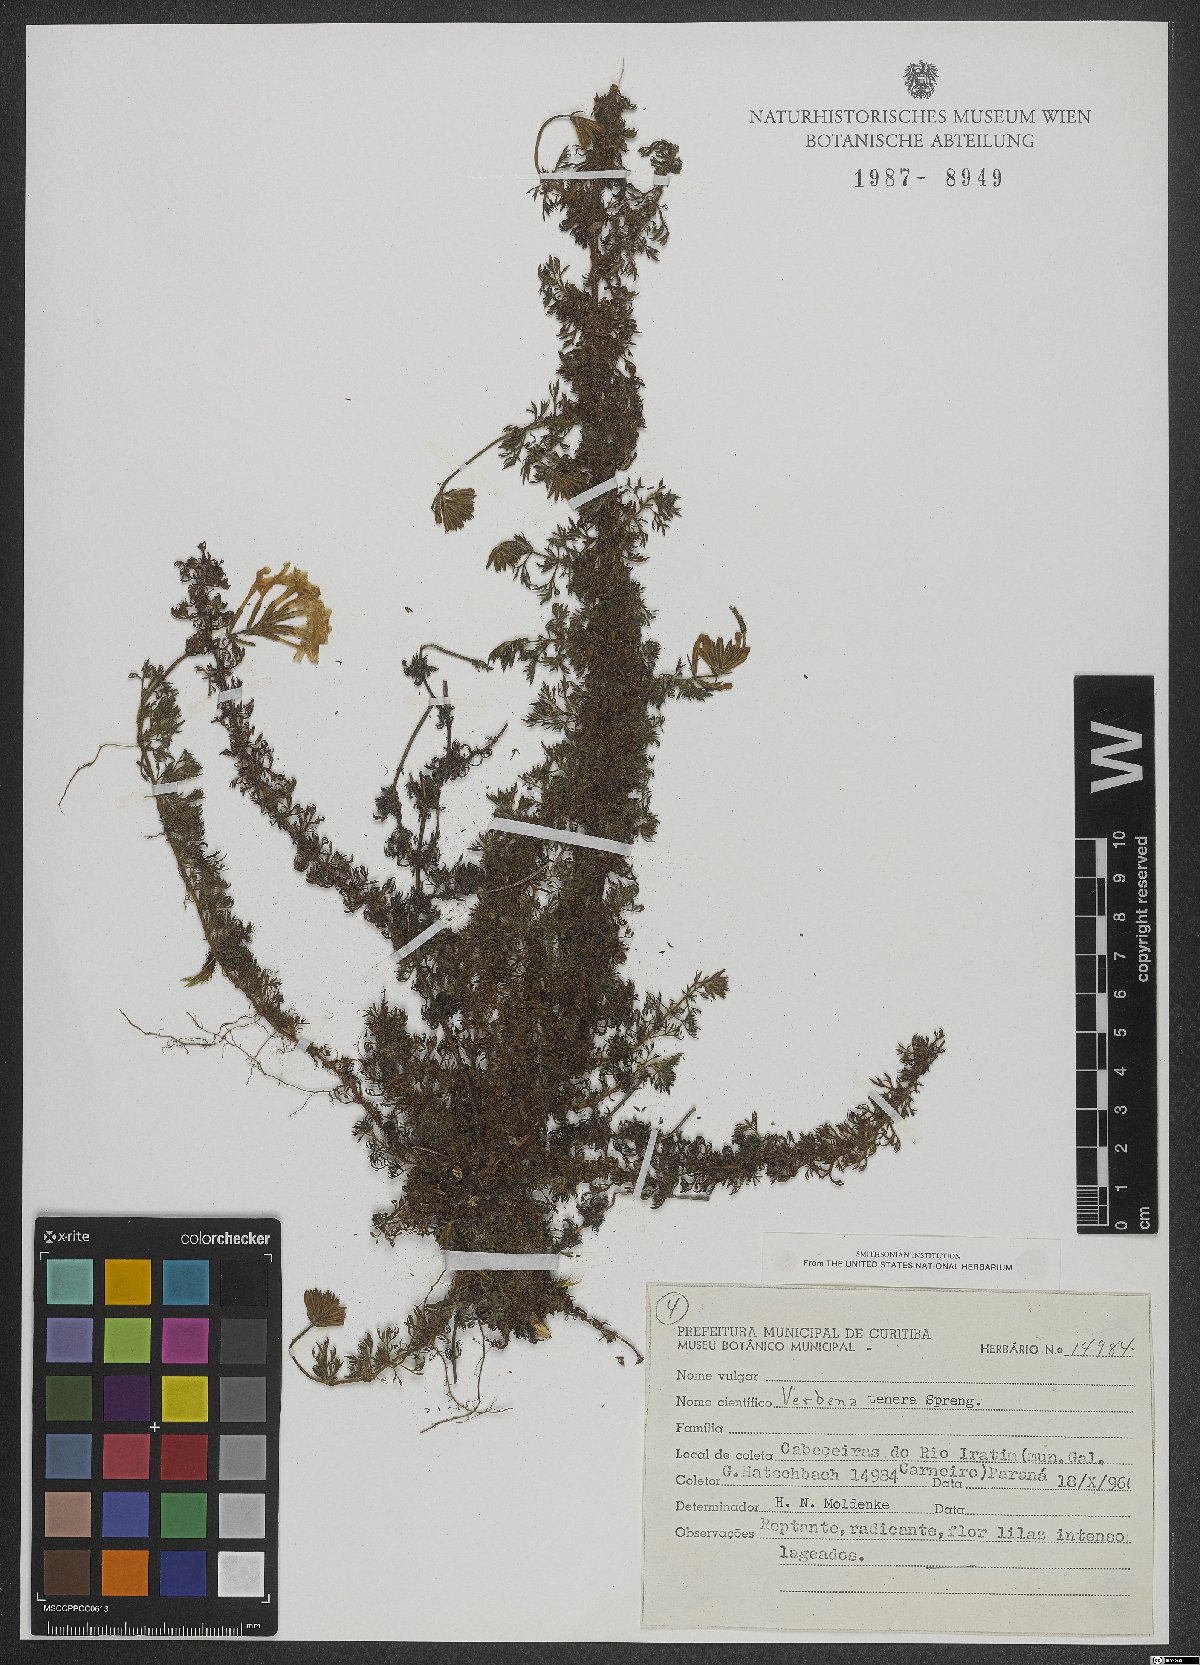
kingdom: Plantae
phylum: Tracheophyta
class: Magnoliopsida
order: Lamiales
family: Verbenaceae
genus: Verbena
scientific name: Verbena tenera
